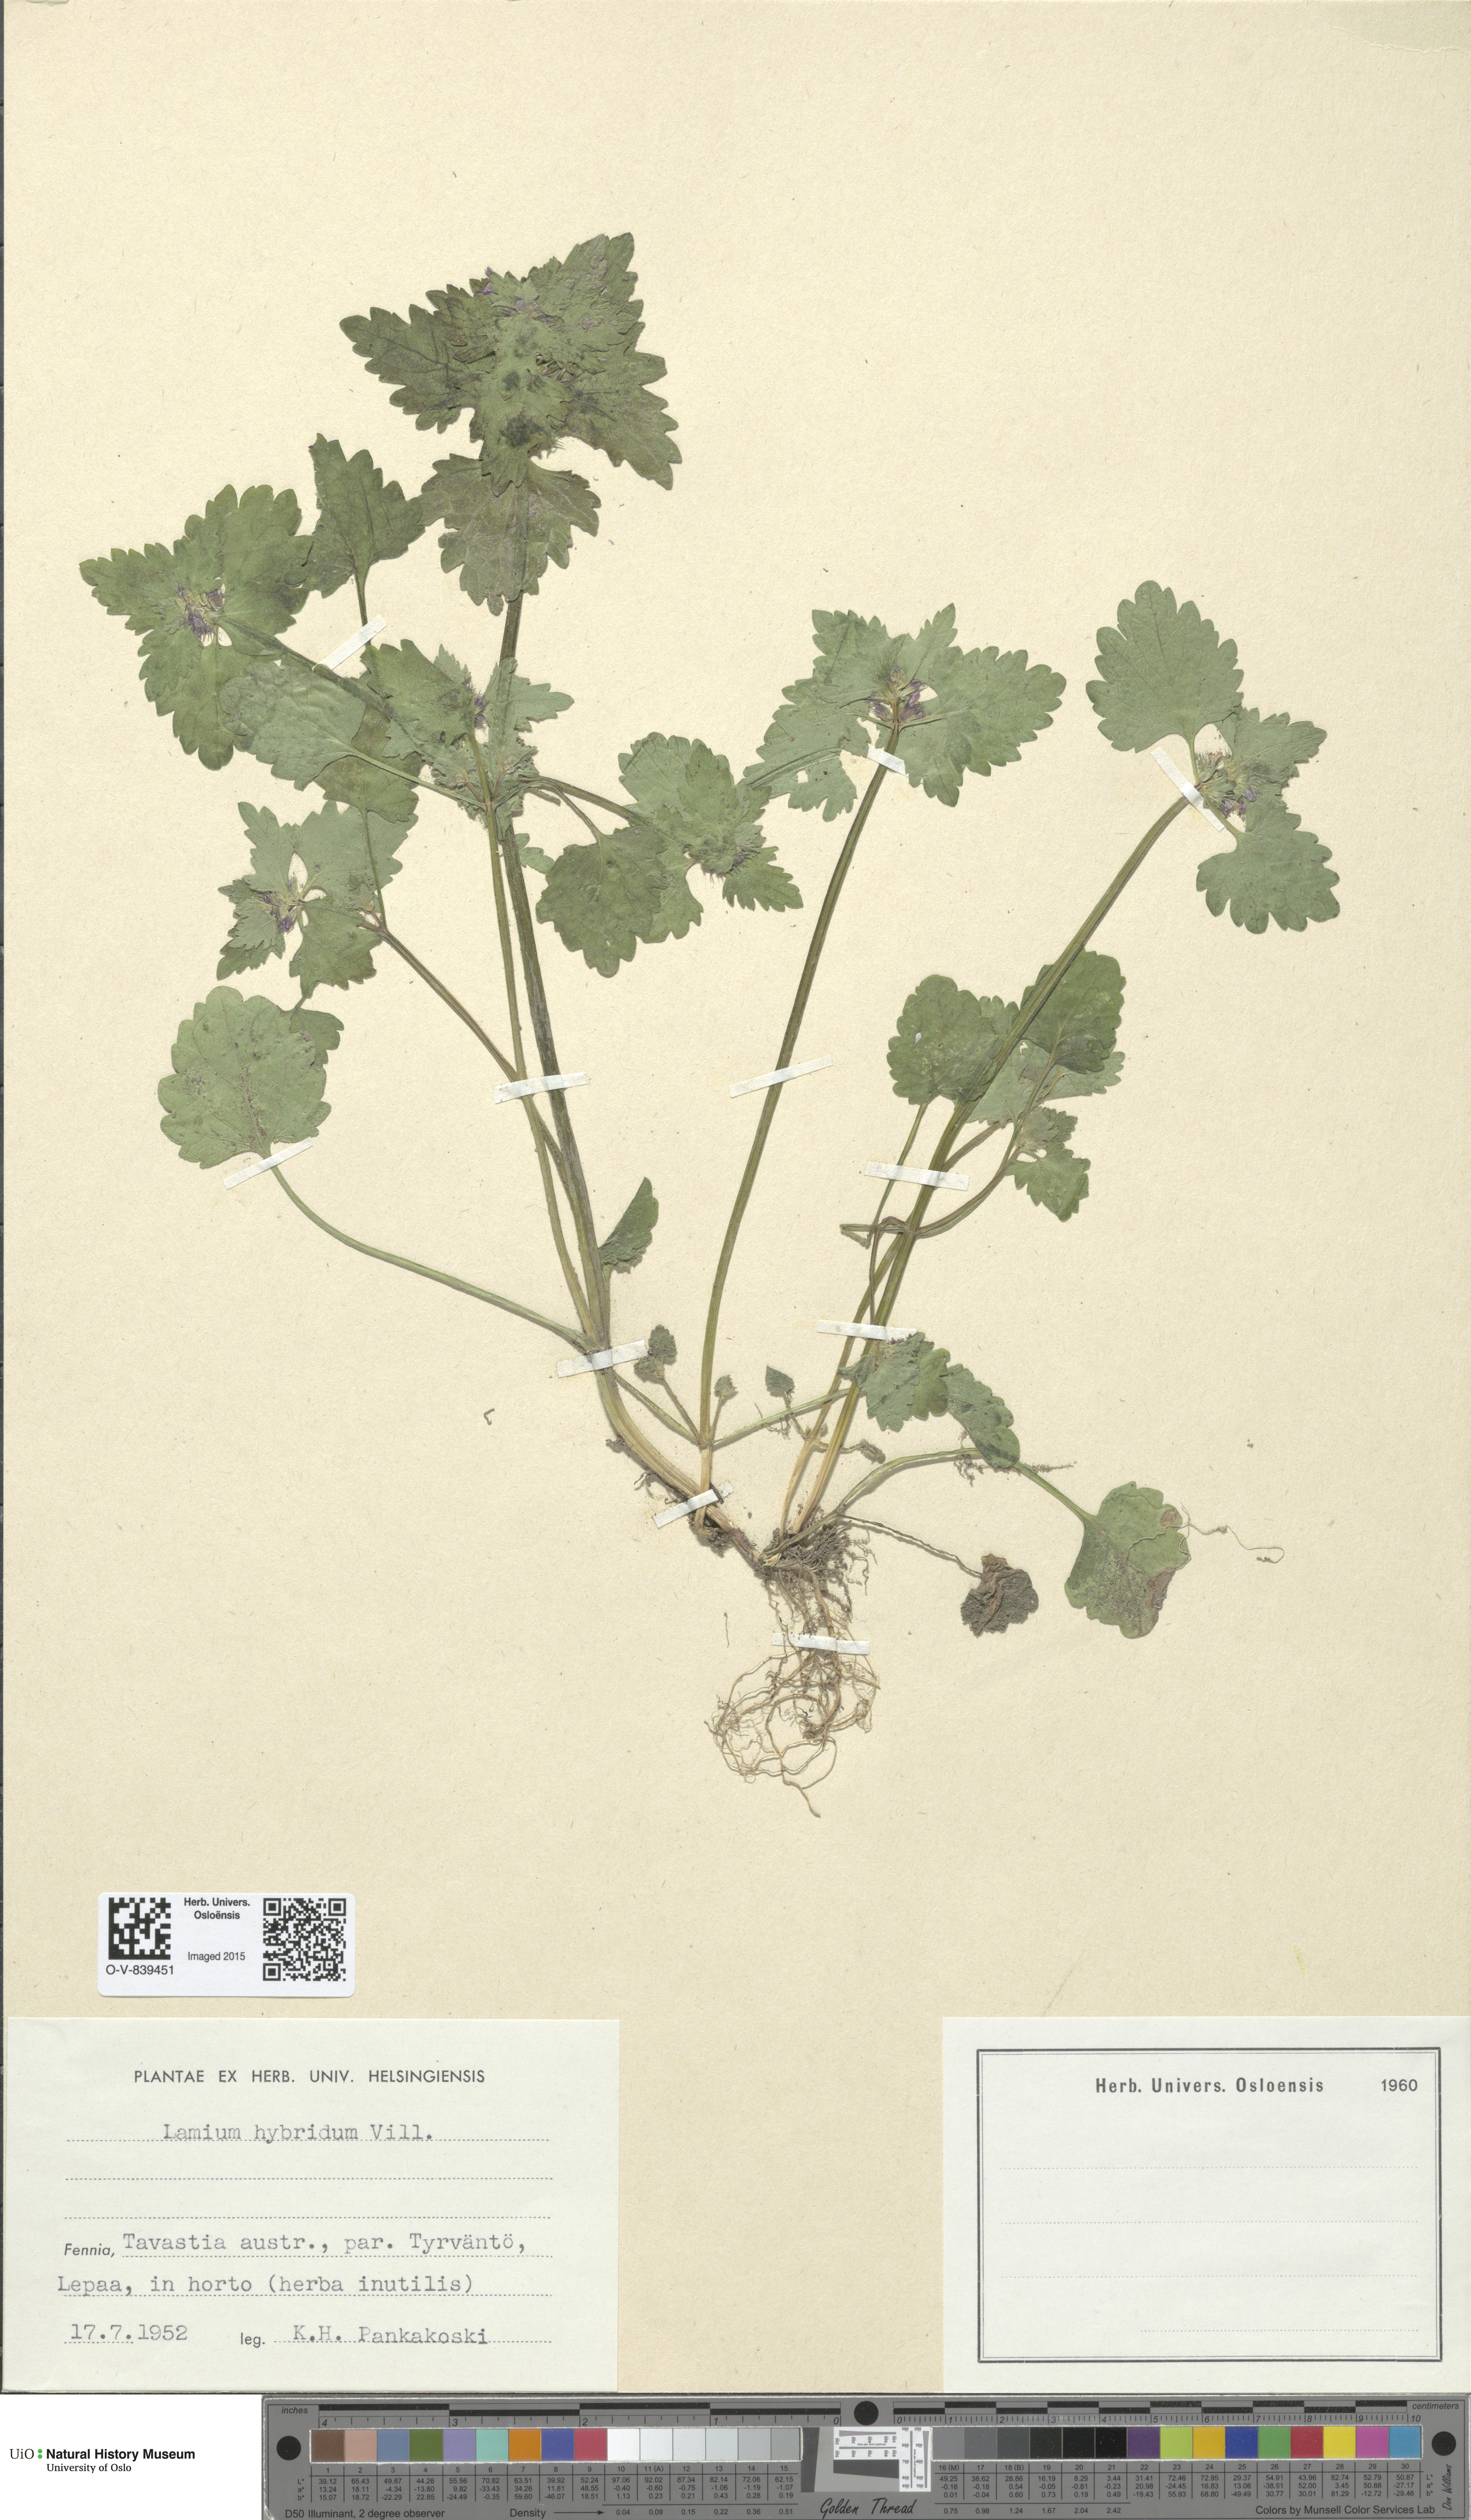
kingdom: Plantae
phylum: Tracheophyta
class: Magnoliopsida
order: Lamiales
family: Lamiaceae
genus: Lamium
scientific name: Lamium hybridum
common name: Cut-leaved dead-nettle
